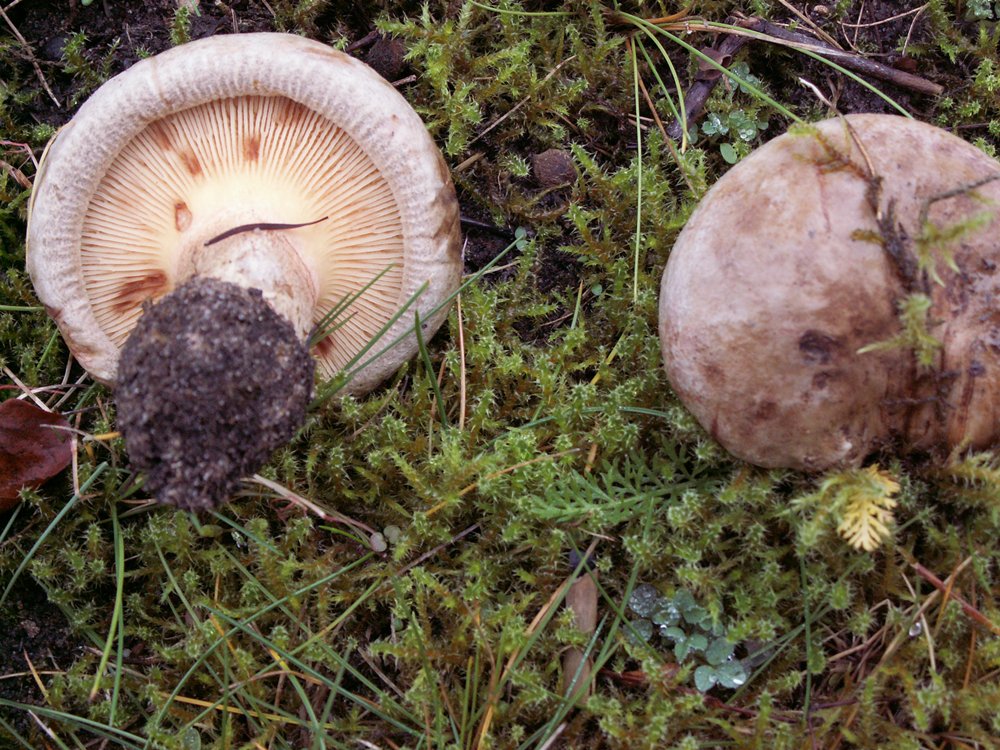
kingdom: Fungi
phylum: Basidiomycota
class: Agaricomycetes
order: Boletales
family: Paxillaceae
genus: Paxillus
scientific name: Paxillus obscurisporus
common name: mahognisporet netbladhat
